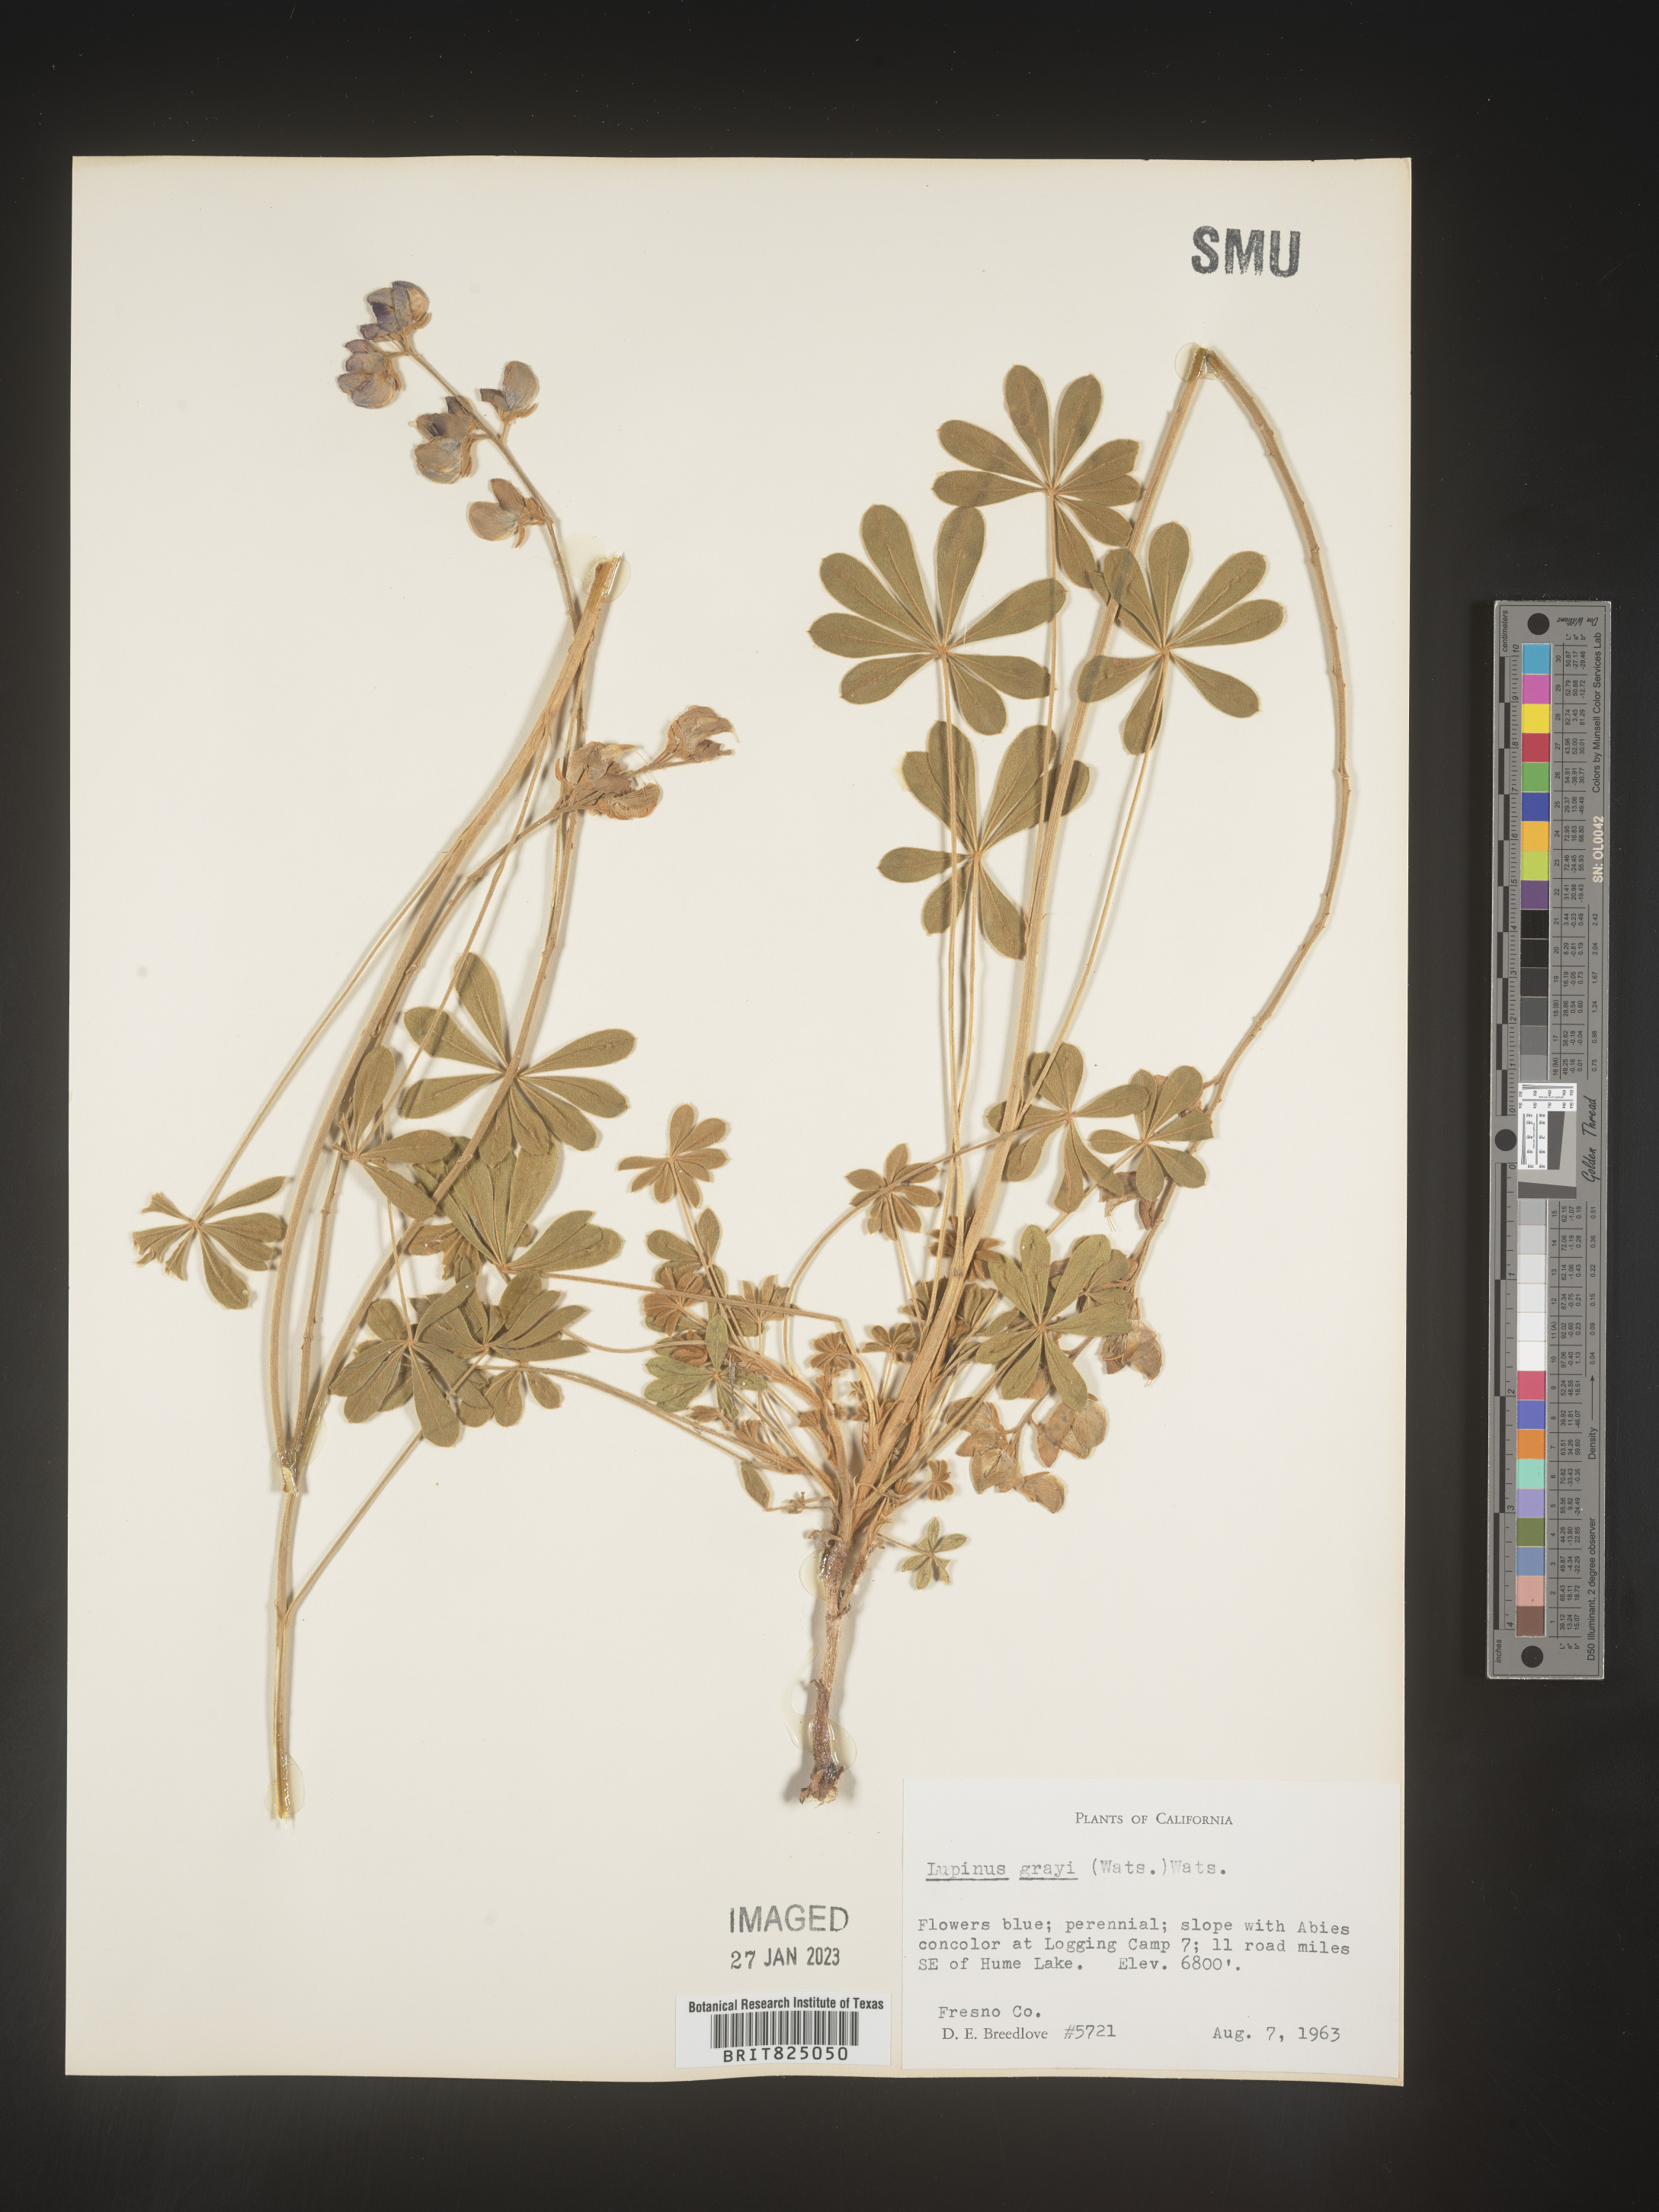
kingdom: Plantae
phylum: Tracheophyta
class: Magnoliopsida
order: Fabales
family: Fabaceae
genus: Lupinus
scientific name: Lupinus
